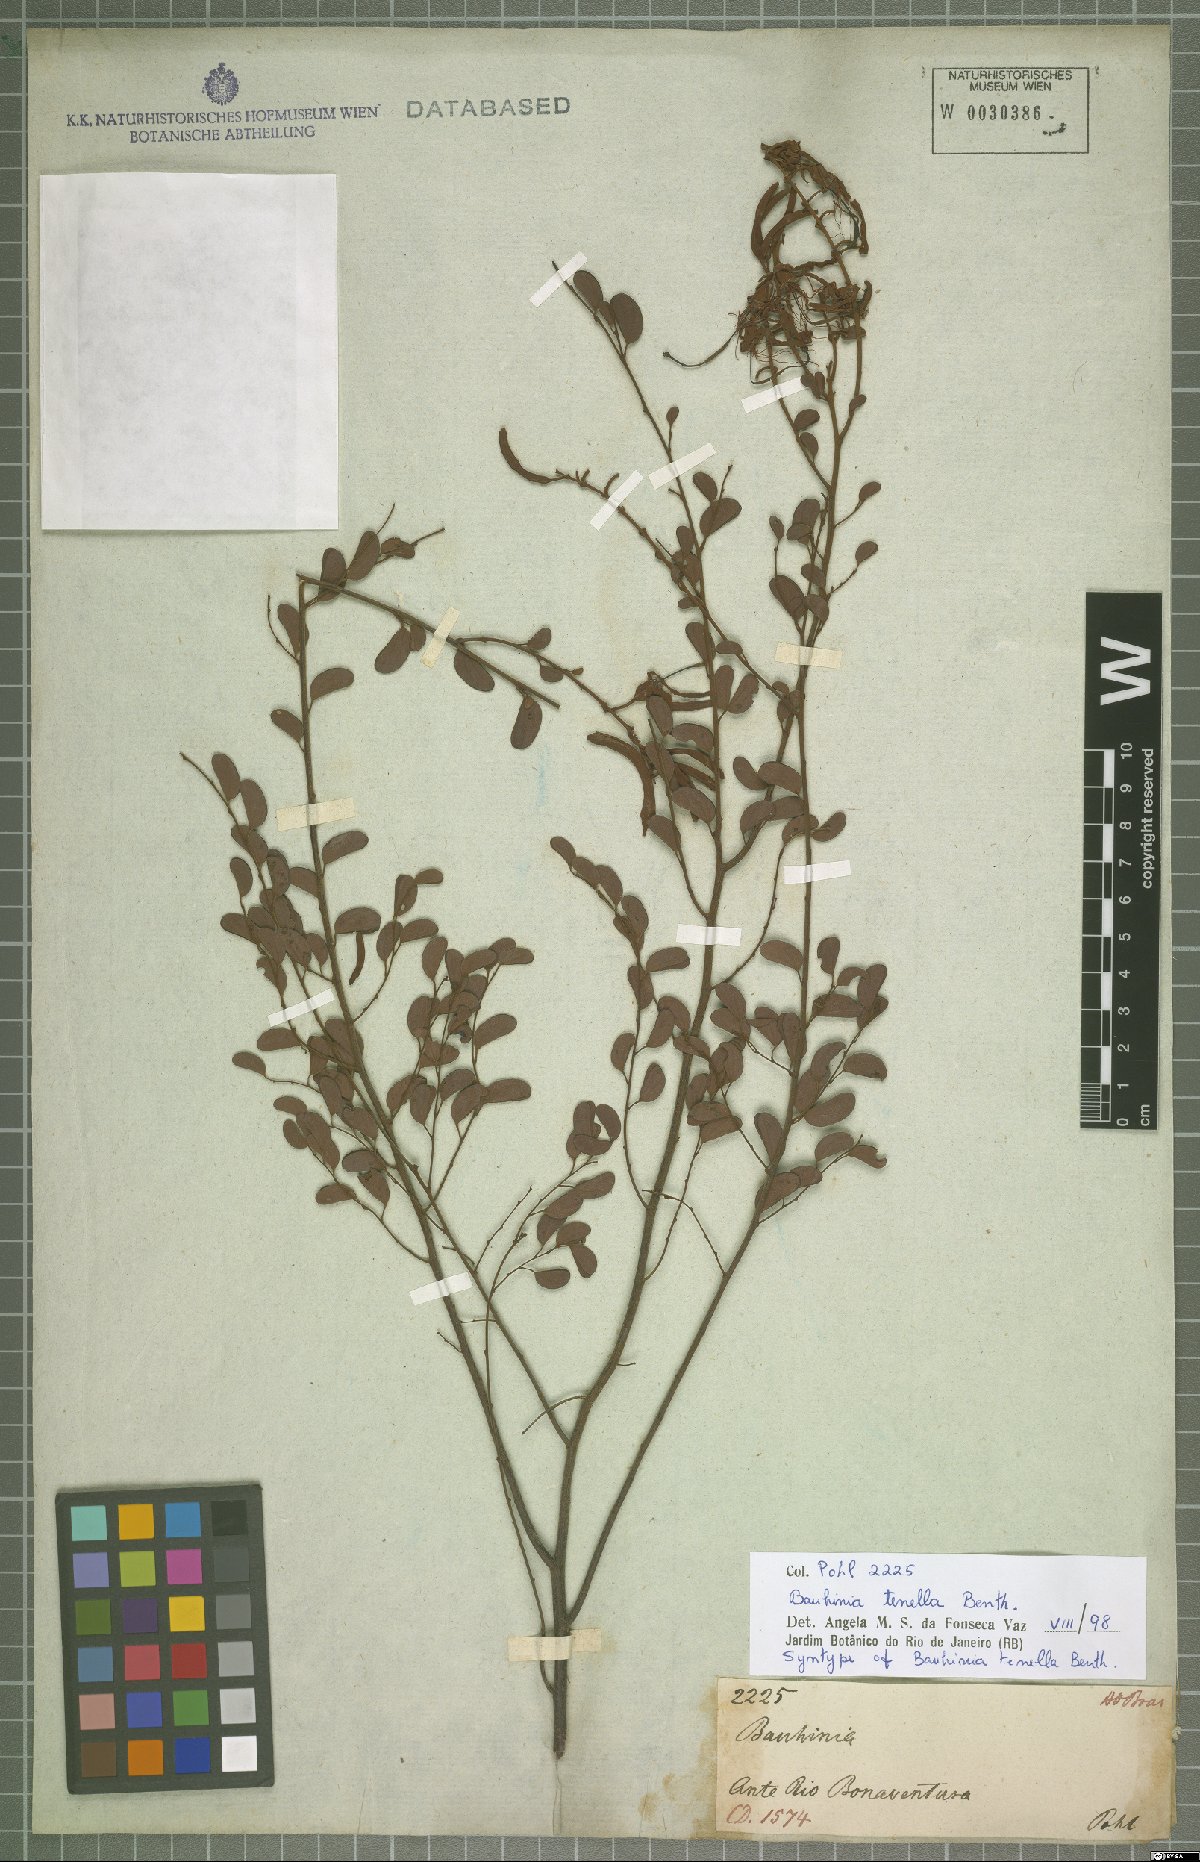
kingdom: Plantae
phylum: Tracheophyta
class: Magnoliopsida
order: Fabales
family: Fabaceae
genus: Bauhinia
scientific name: Bauhinia tenella
